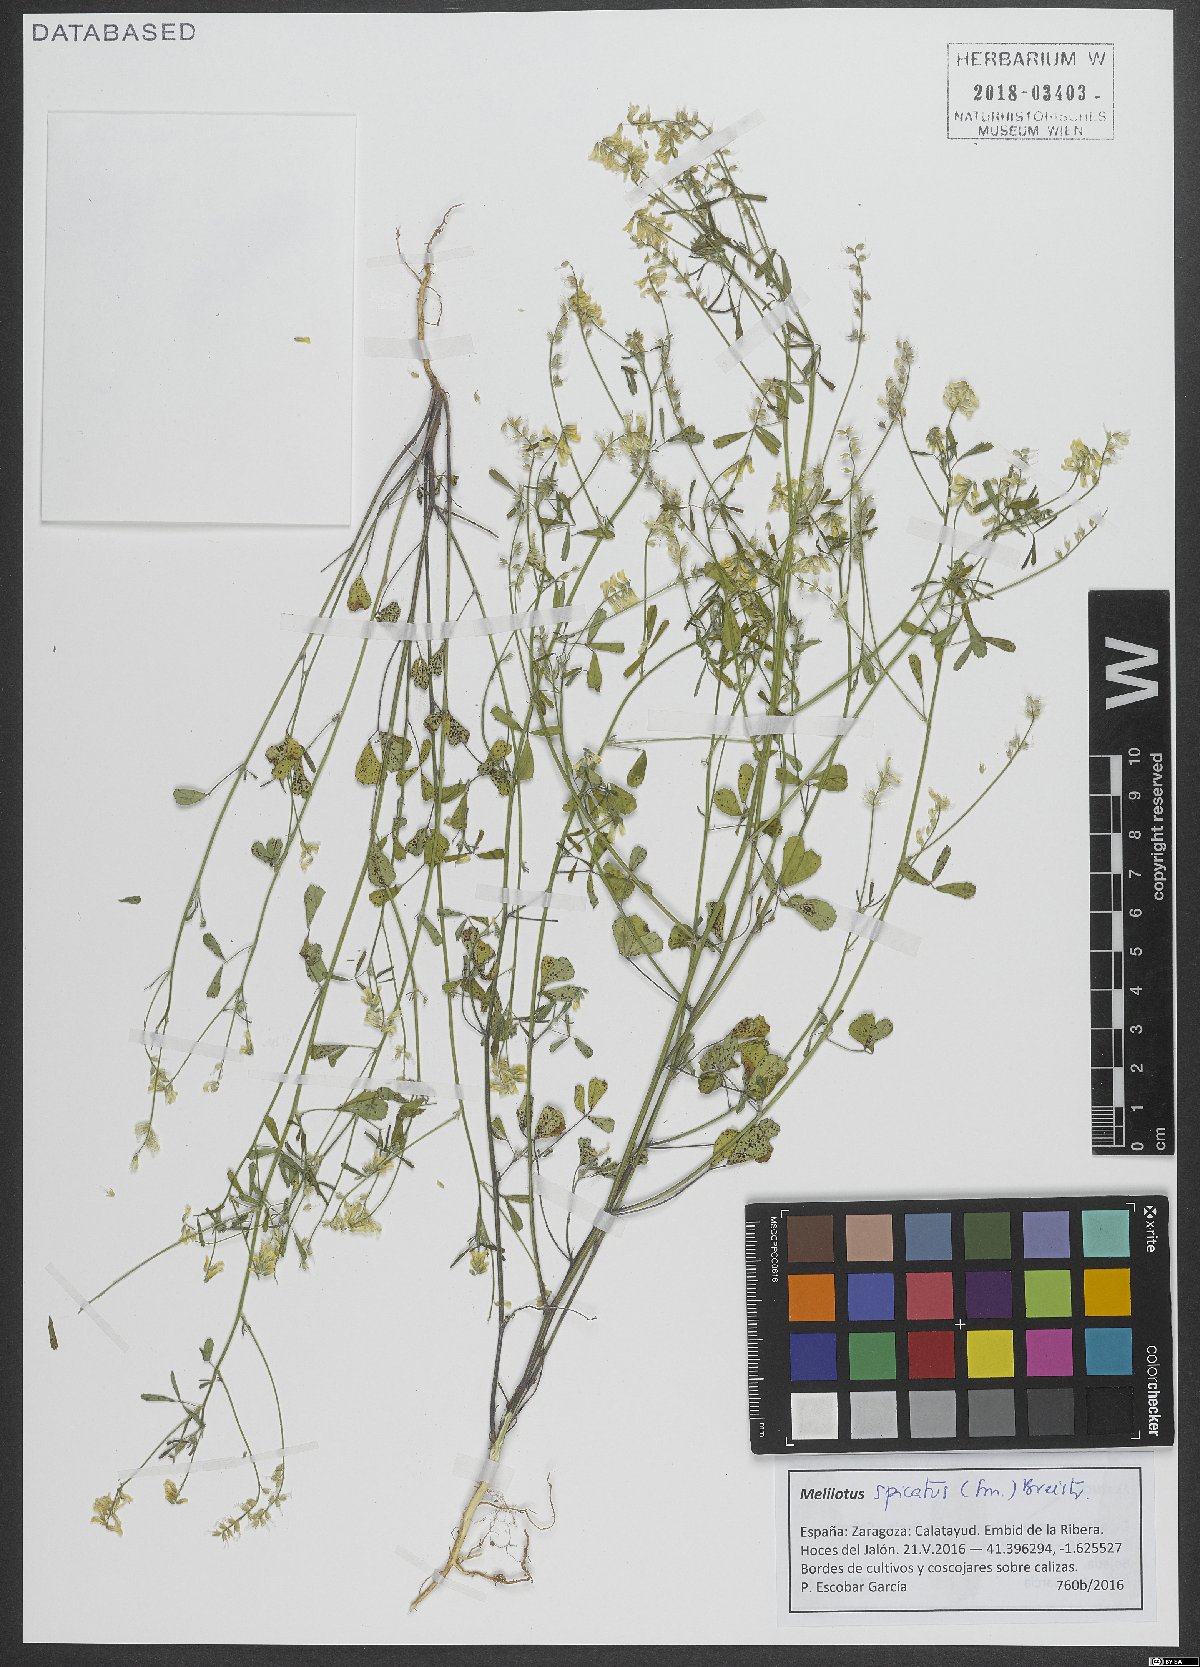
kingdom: Plantae
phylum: Tracheophyta
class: Magnoliopsida
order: Fabales
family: Fabaceae
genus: Melilotus
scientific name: Melilotus neapolitanus
